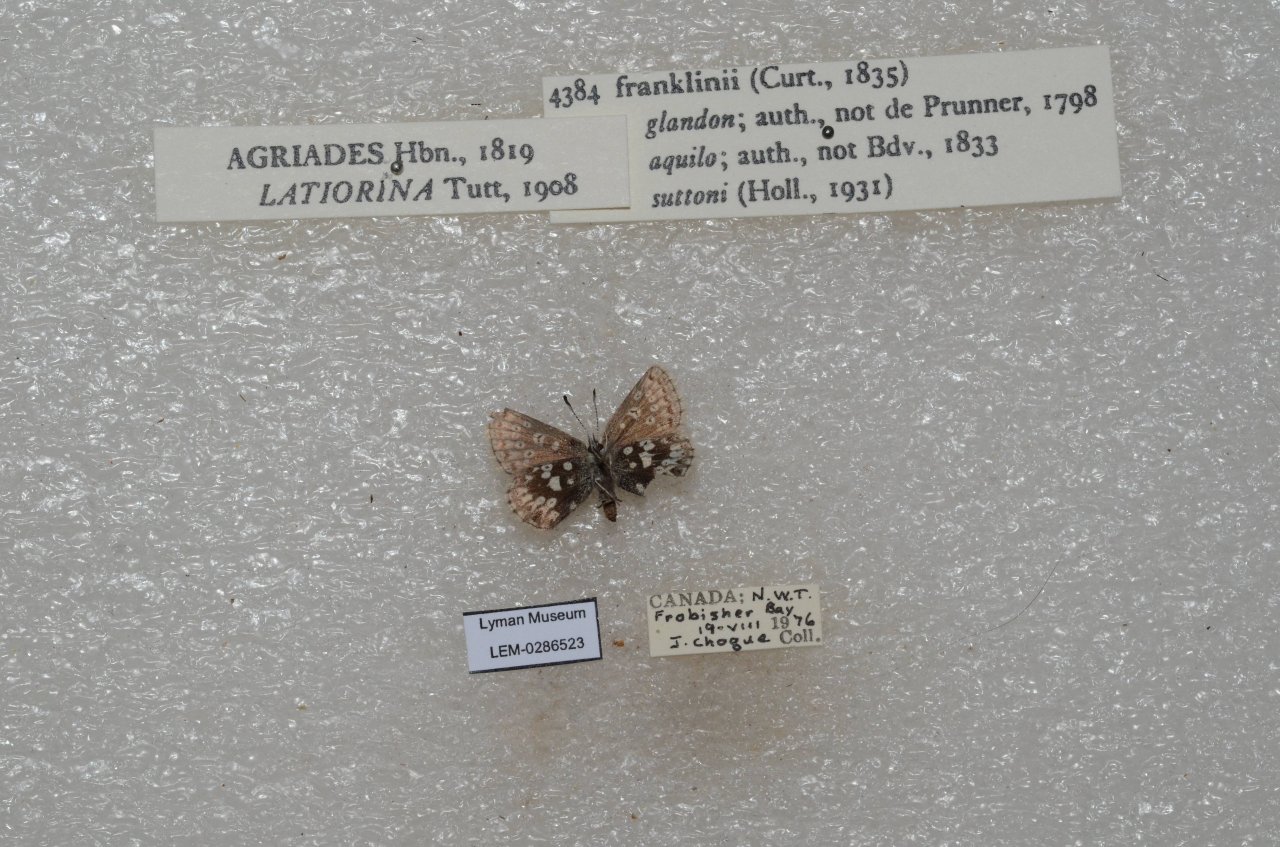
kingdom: Animalia
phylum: Arthropoda
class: Insecta
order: Lepidoptera
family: Lycaenidae
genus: Agriades
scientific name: Agriades glandon
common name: Arctic Blue
